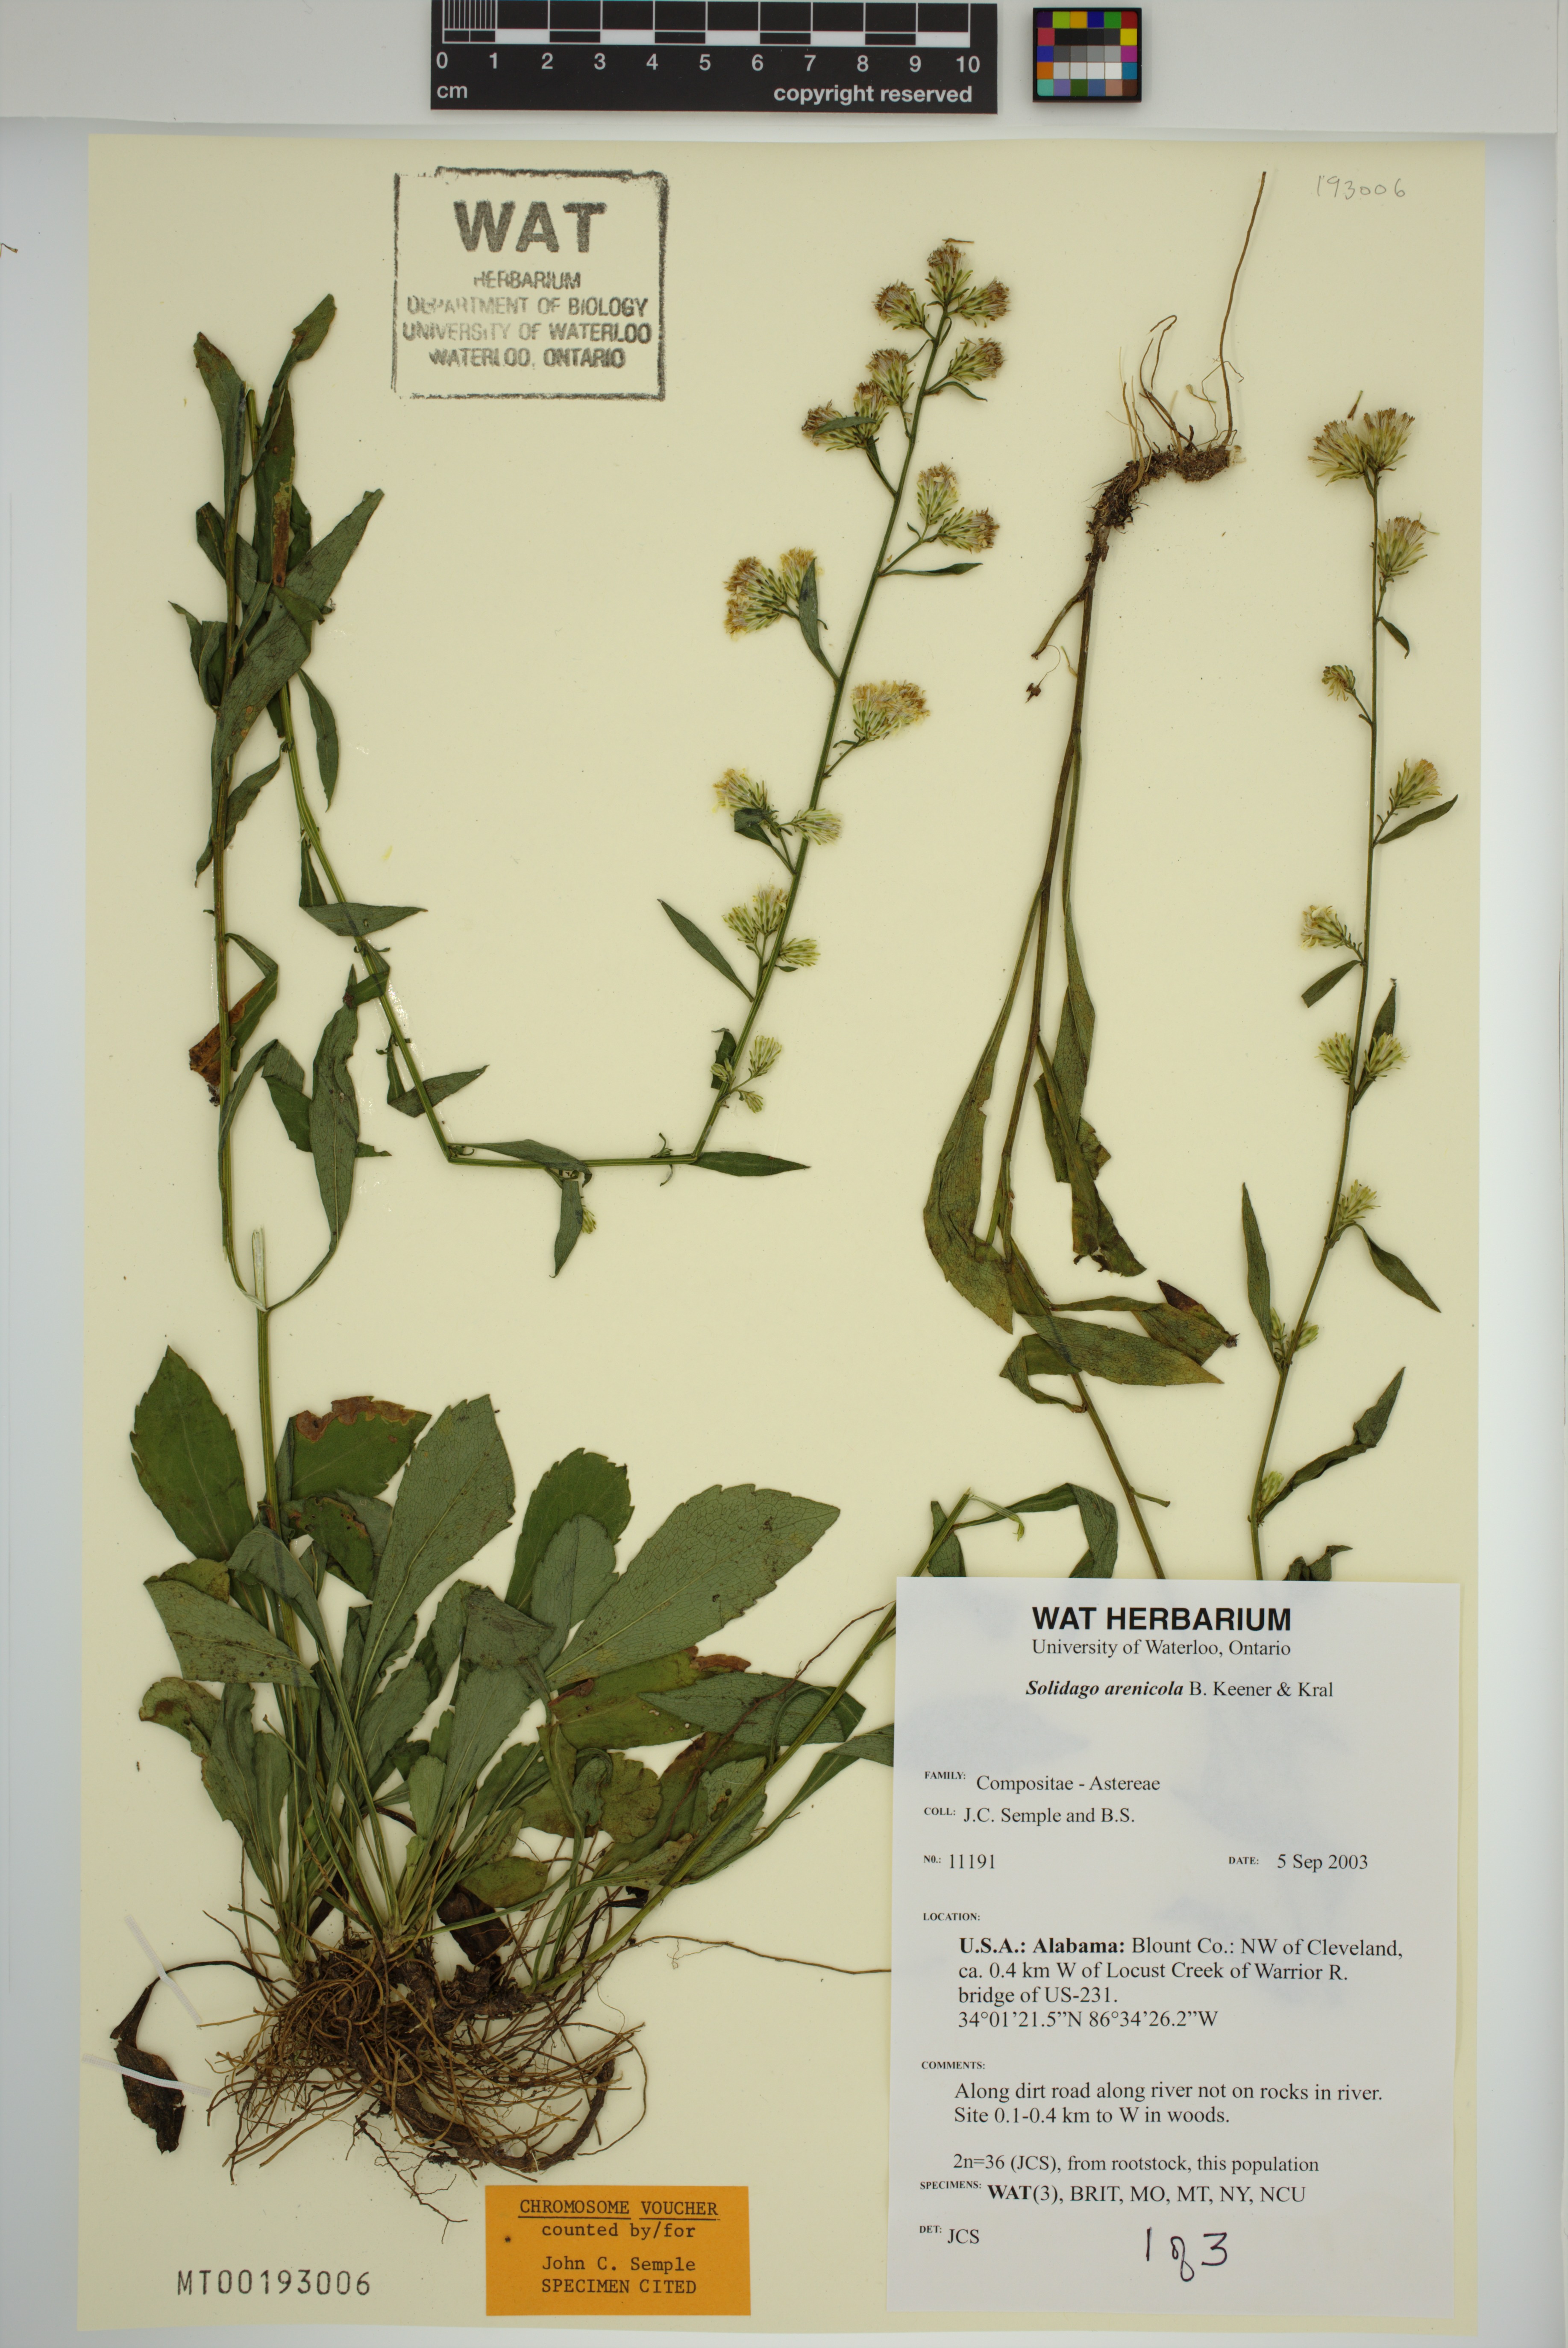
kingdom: Plantae
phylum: Tracheophyta
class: Magnoliopsida
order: Asterales
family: Asteraceae
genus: Solidago
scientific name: Solidago arenicola
